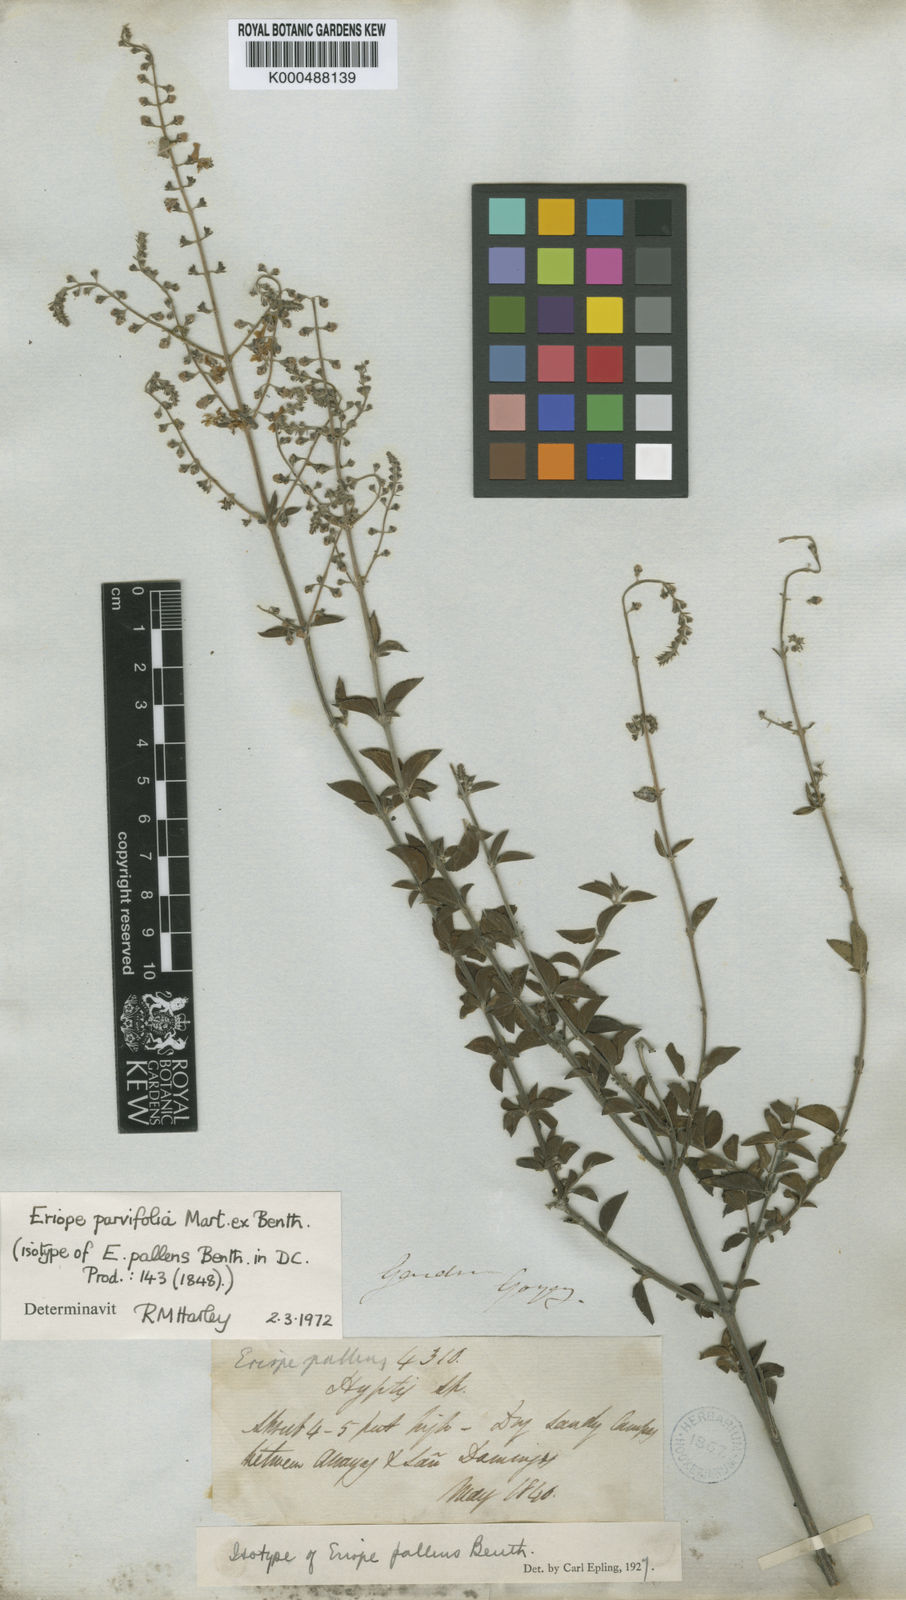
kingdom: Plantae
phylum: Tracheophyta
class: Magnoliopsida
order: Lamiales
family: Lamiaceae
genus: Eriope
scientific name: Eriope parvifolia
